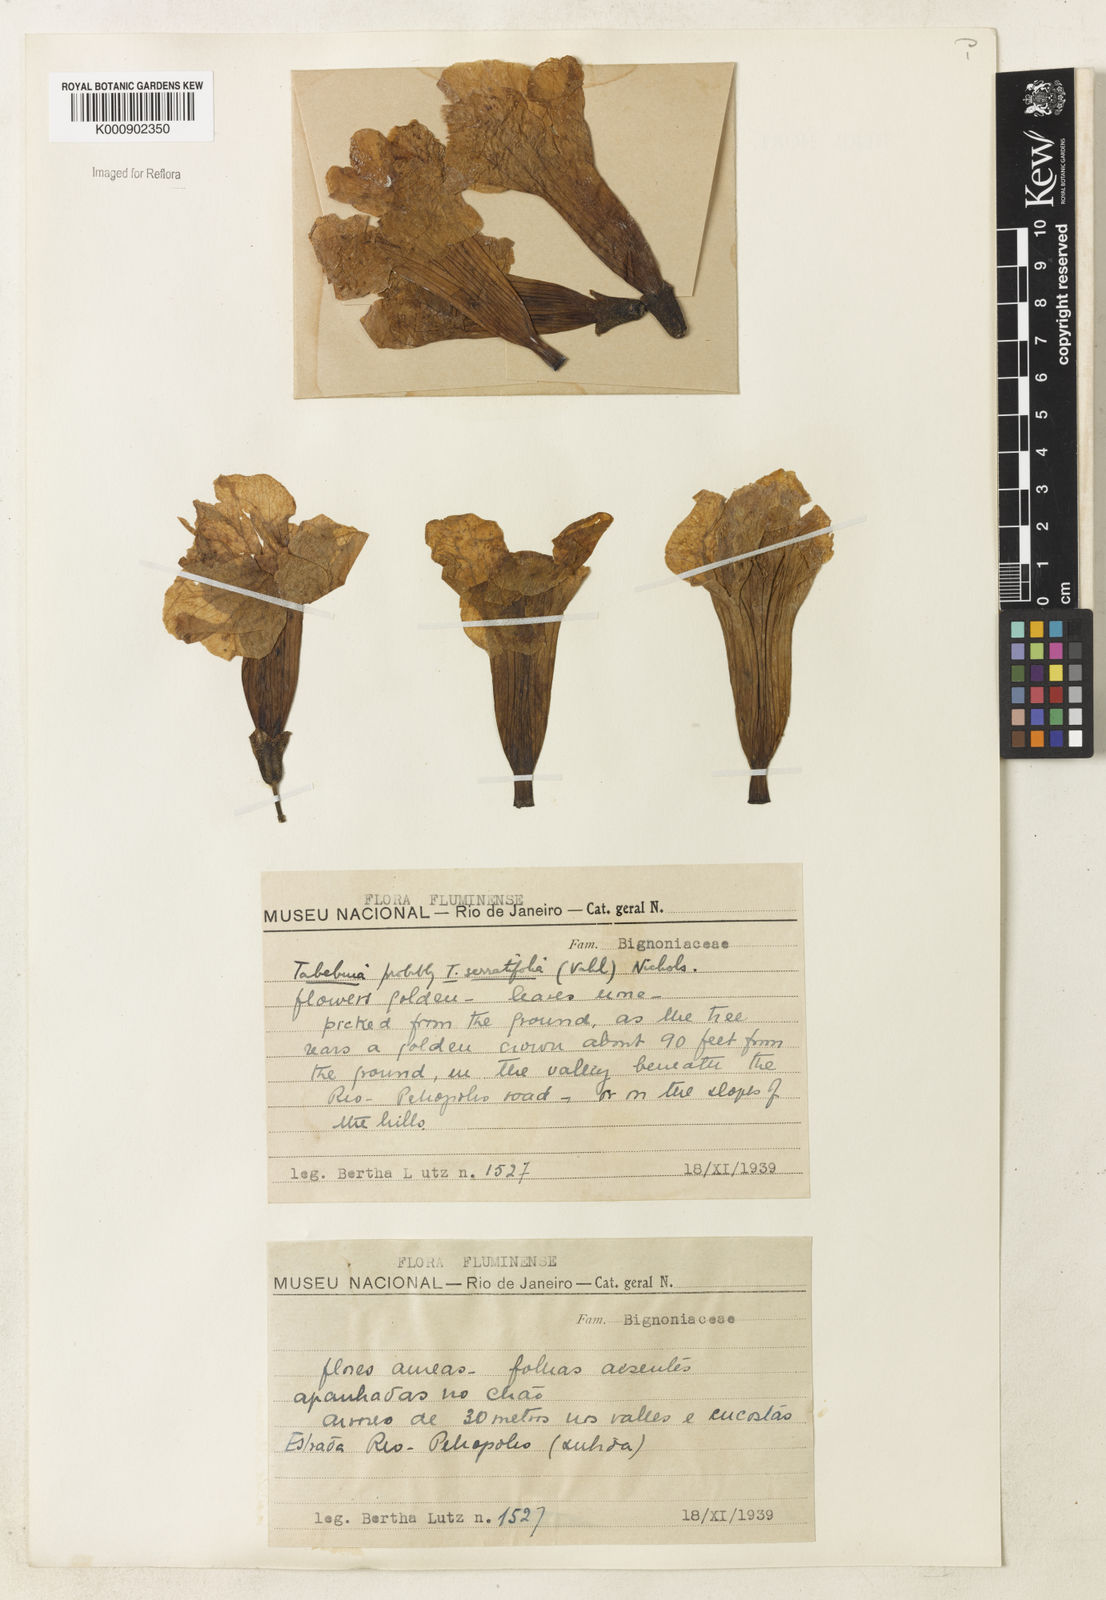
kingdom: Plantae
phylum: Tracheophyta
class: Magnoliopsida
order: Lamiales
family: Bignoniaceae
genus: Handroanthus
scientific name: Handroanthus serratifolius
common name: Yellow ipe
